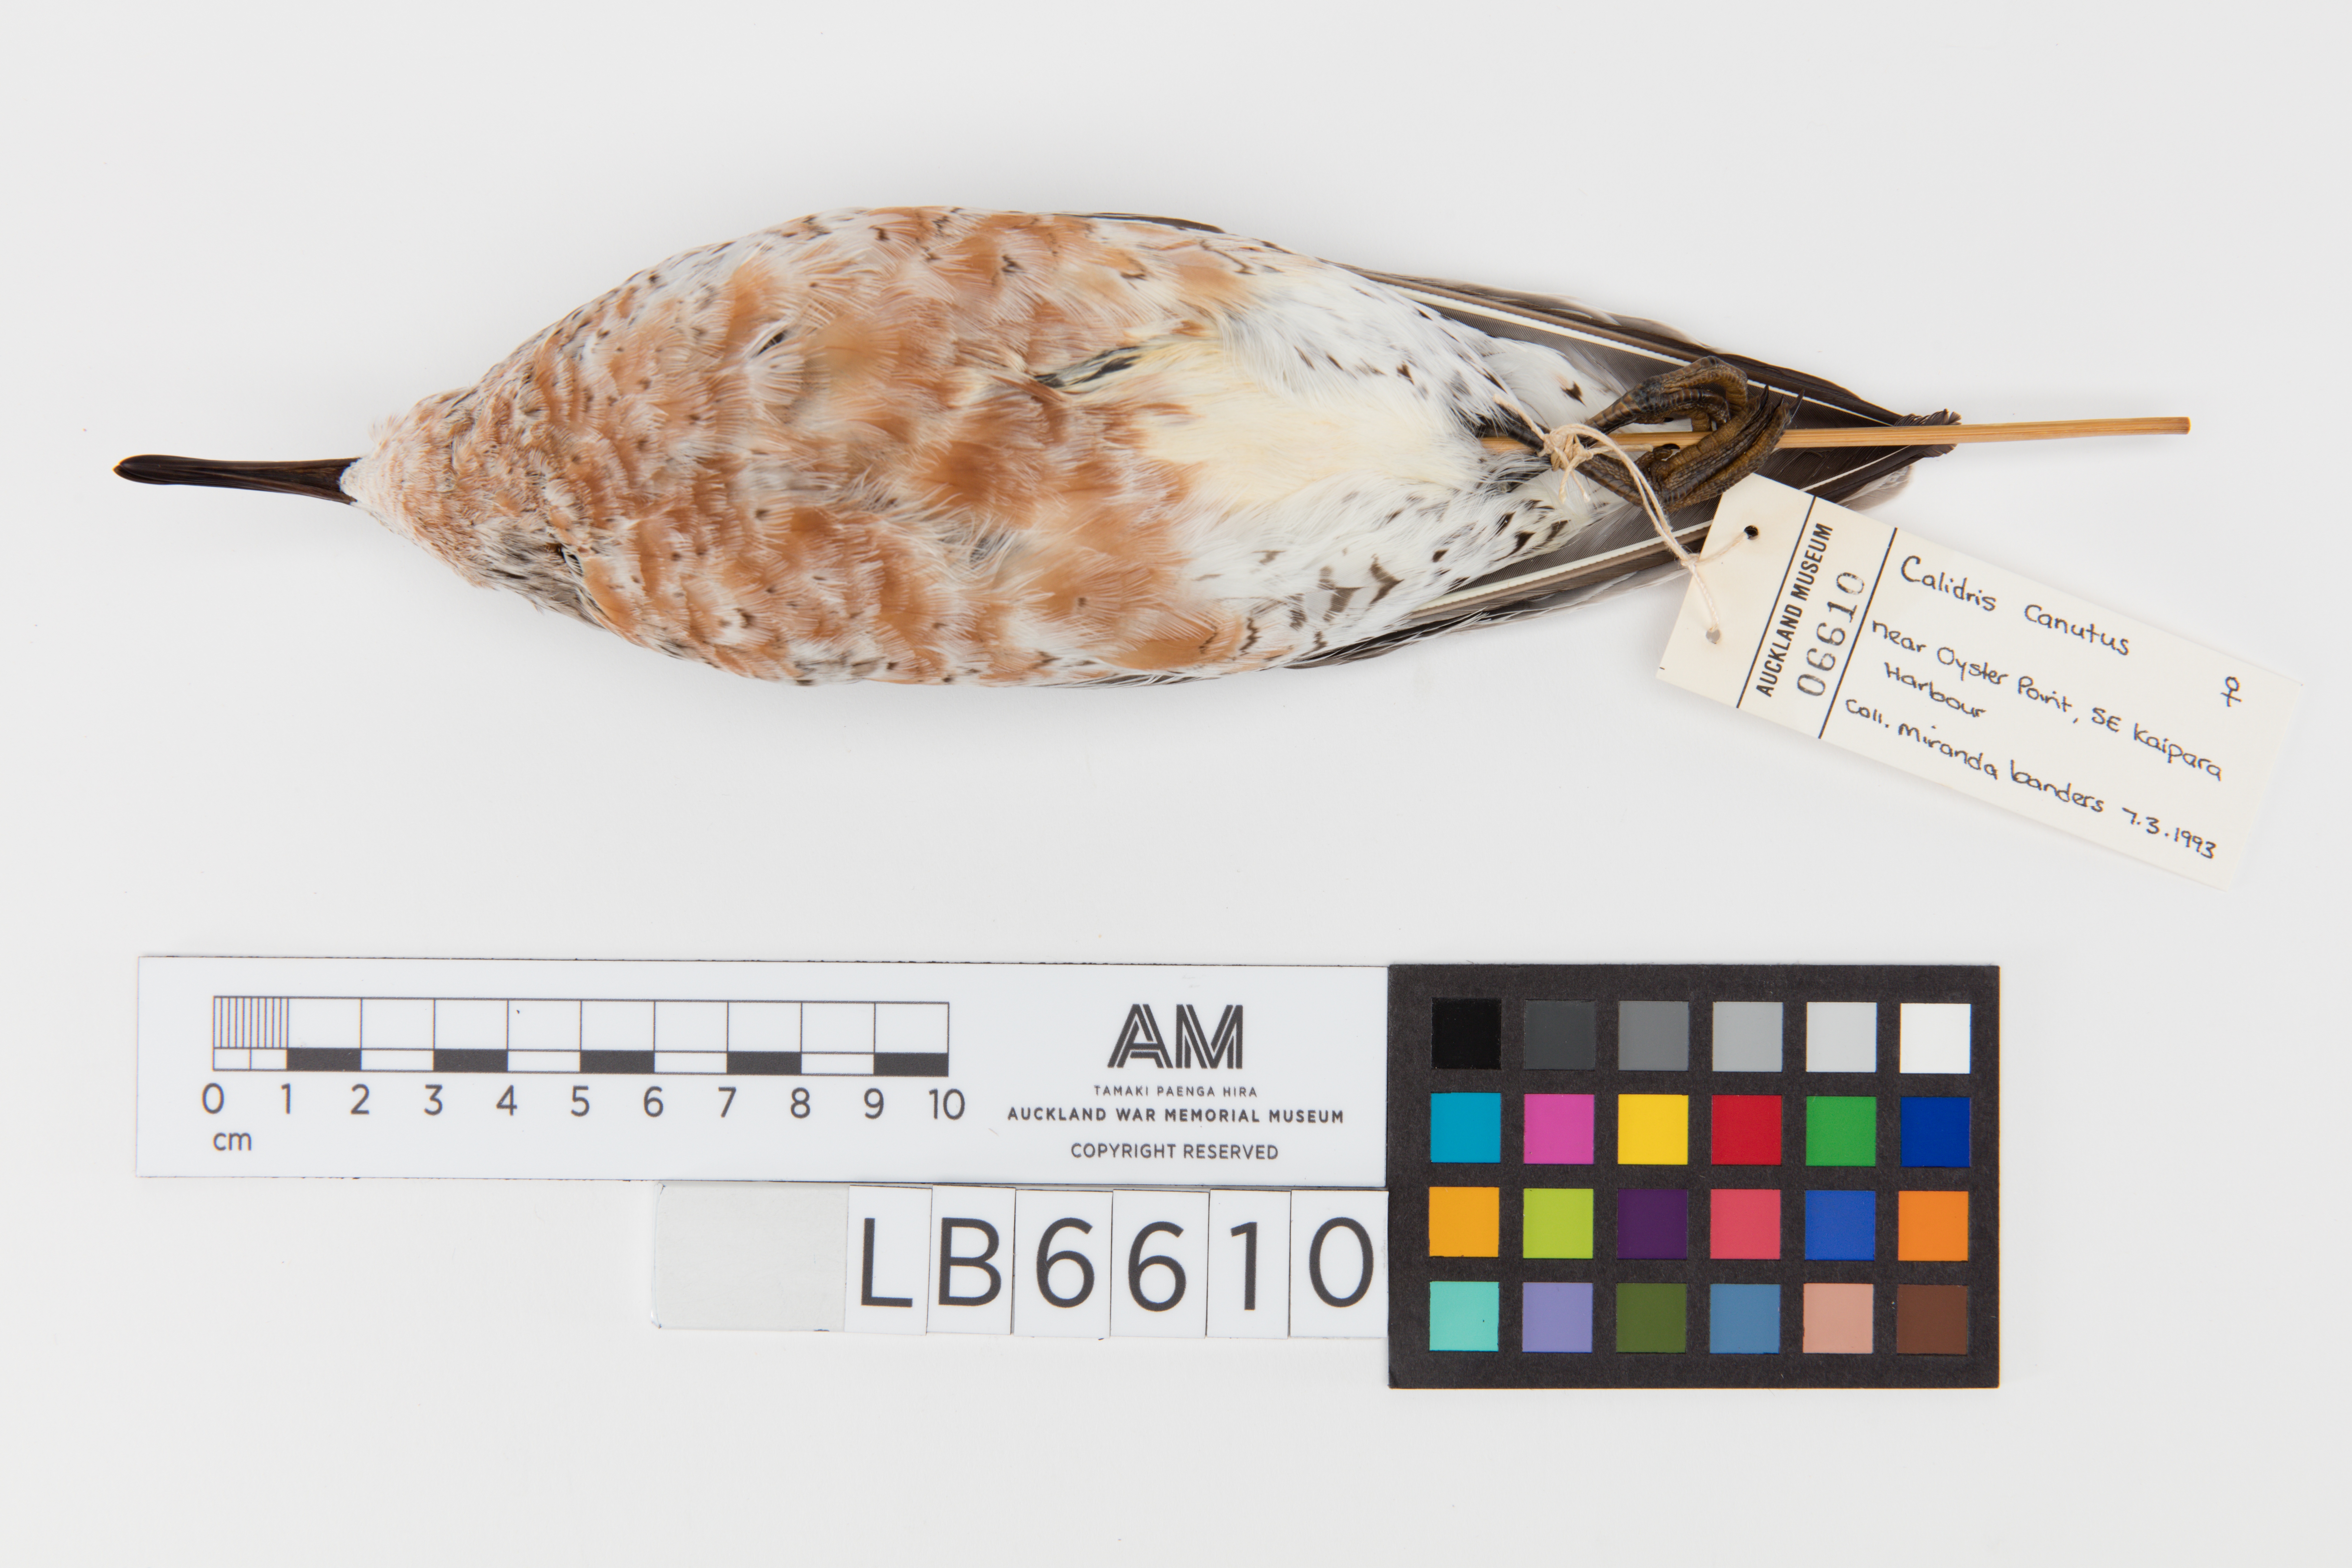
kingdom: Animalia
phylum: Chordata
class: Aves
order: Charadriiformes
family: Scolopacidae
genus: Calidris
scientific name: Calidris canutus
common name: Red knot
